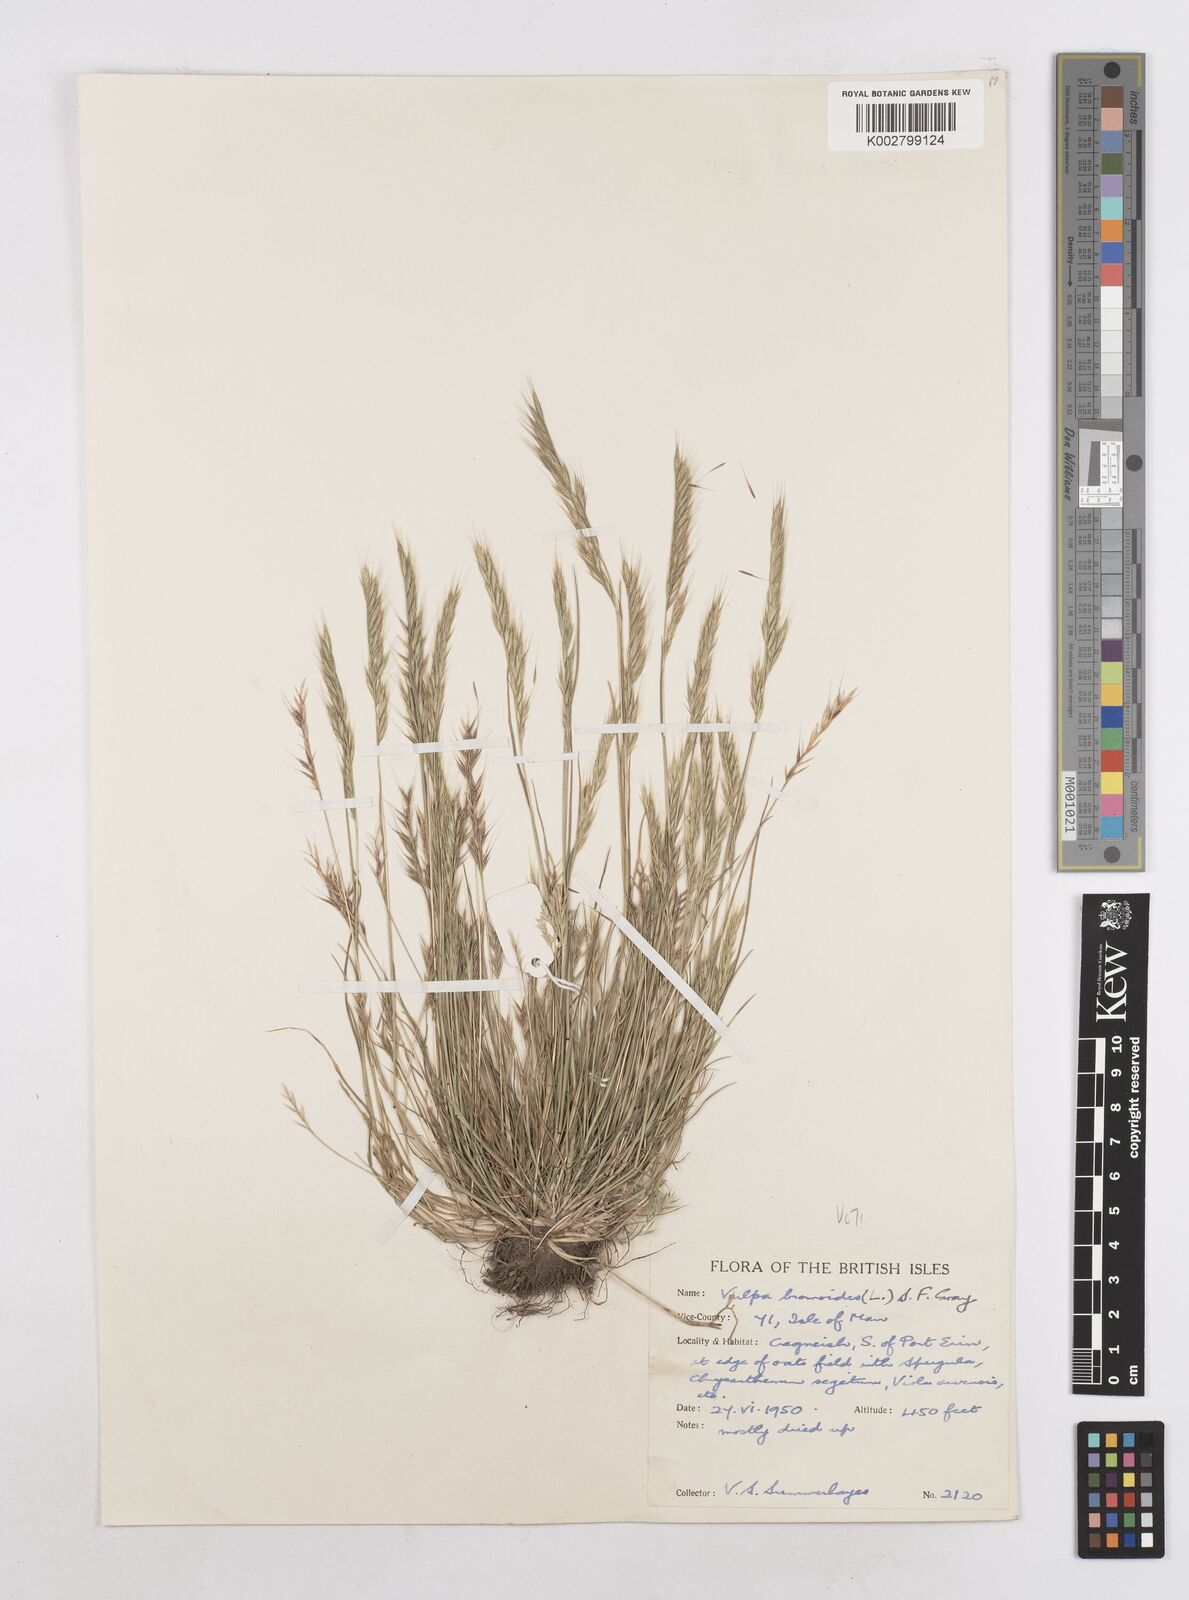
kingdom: Plantae
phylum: Tracheophyta
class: Liliopsida
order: Poales
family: Poaceae
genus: Festuca
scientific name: Festuca bromoides
